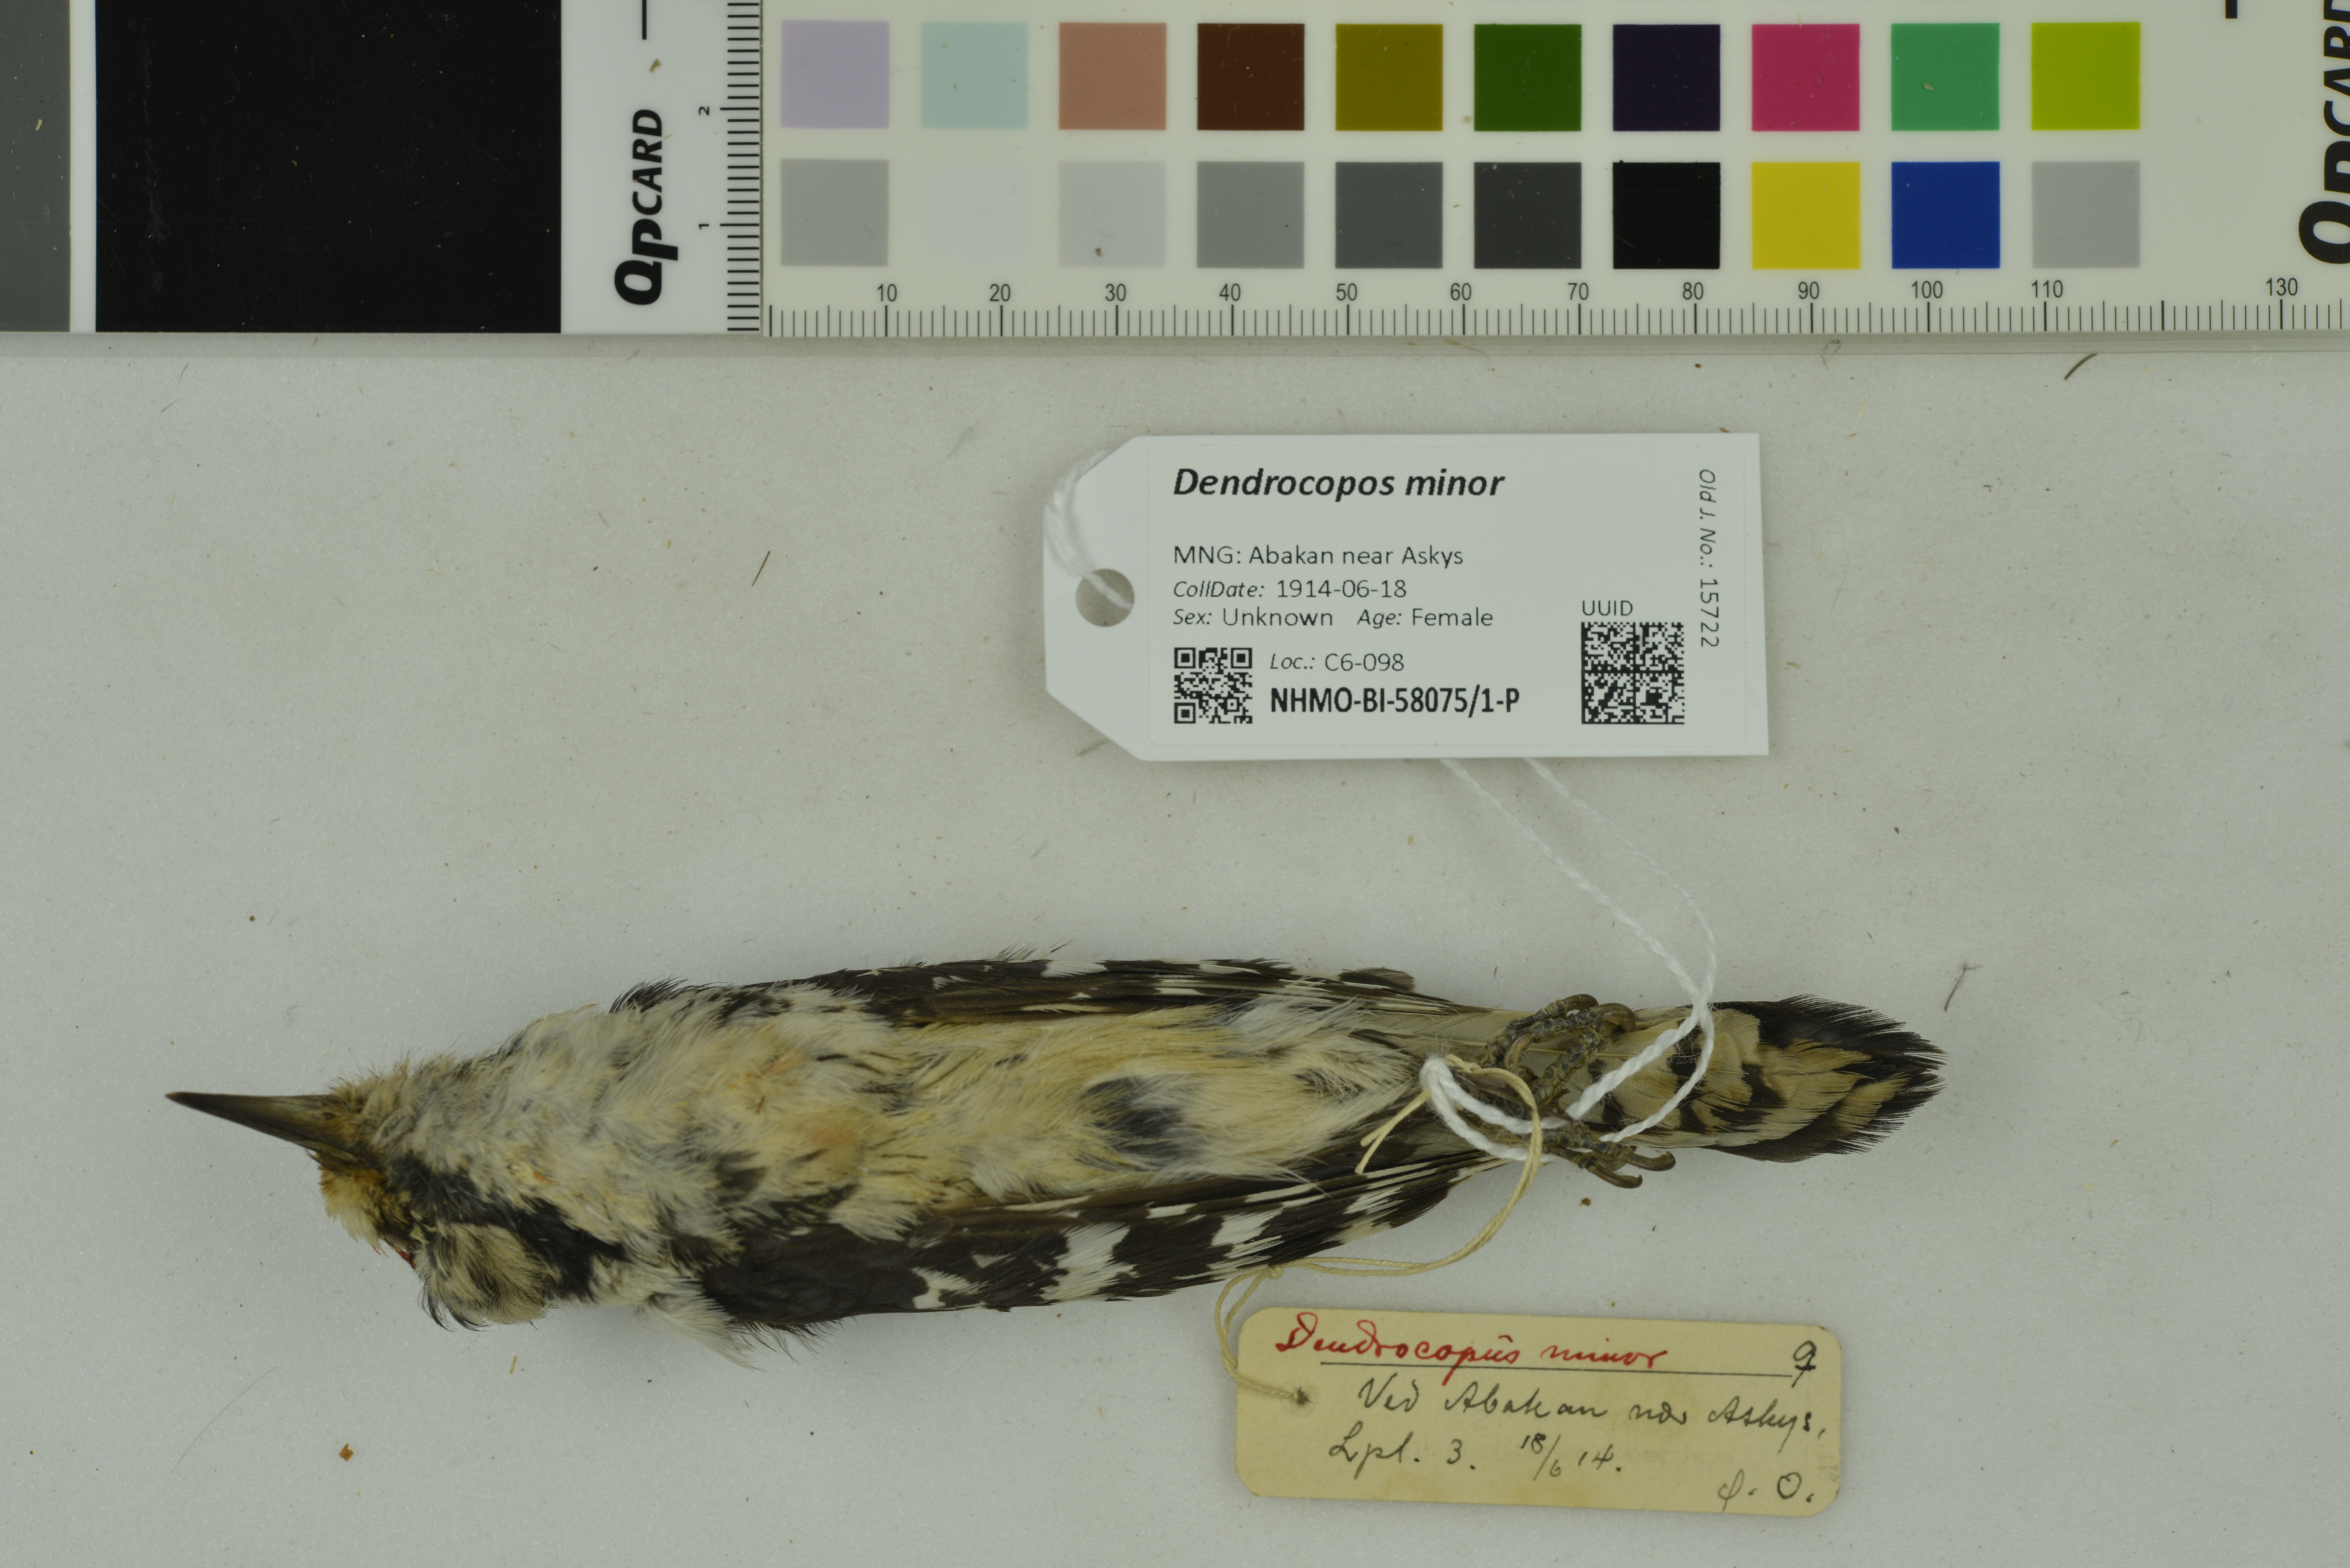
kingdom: Animalia
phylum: Chordata
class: Aves
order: Piciformes
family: Picidae
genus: Dryobates
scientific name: Dryobates minor
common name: Lesser spotted woodpecker
